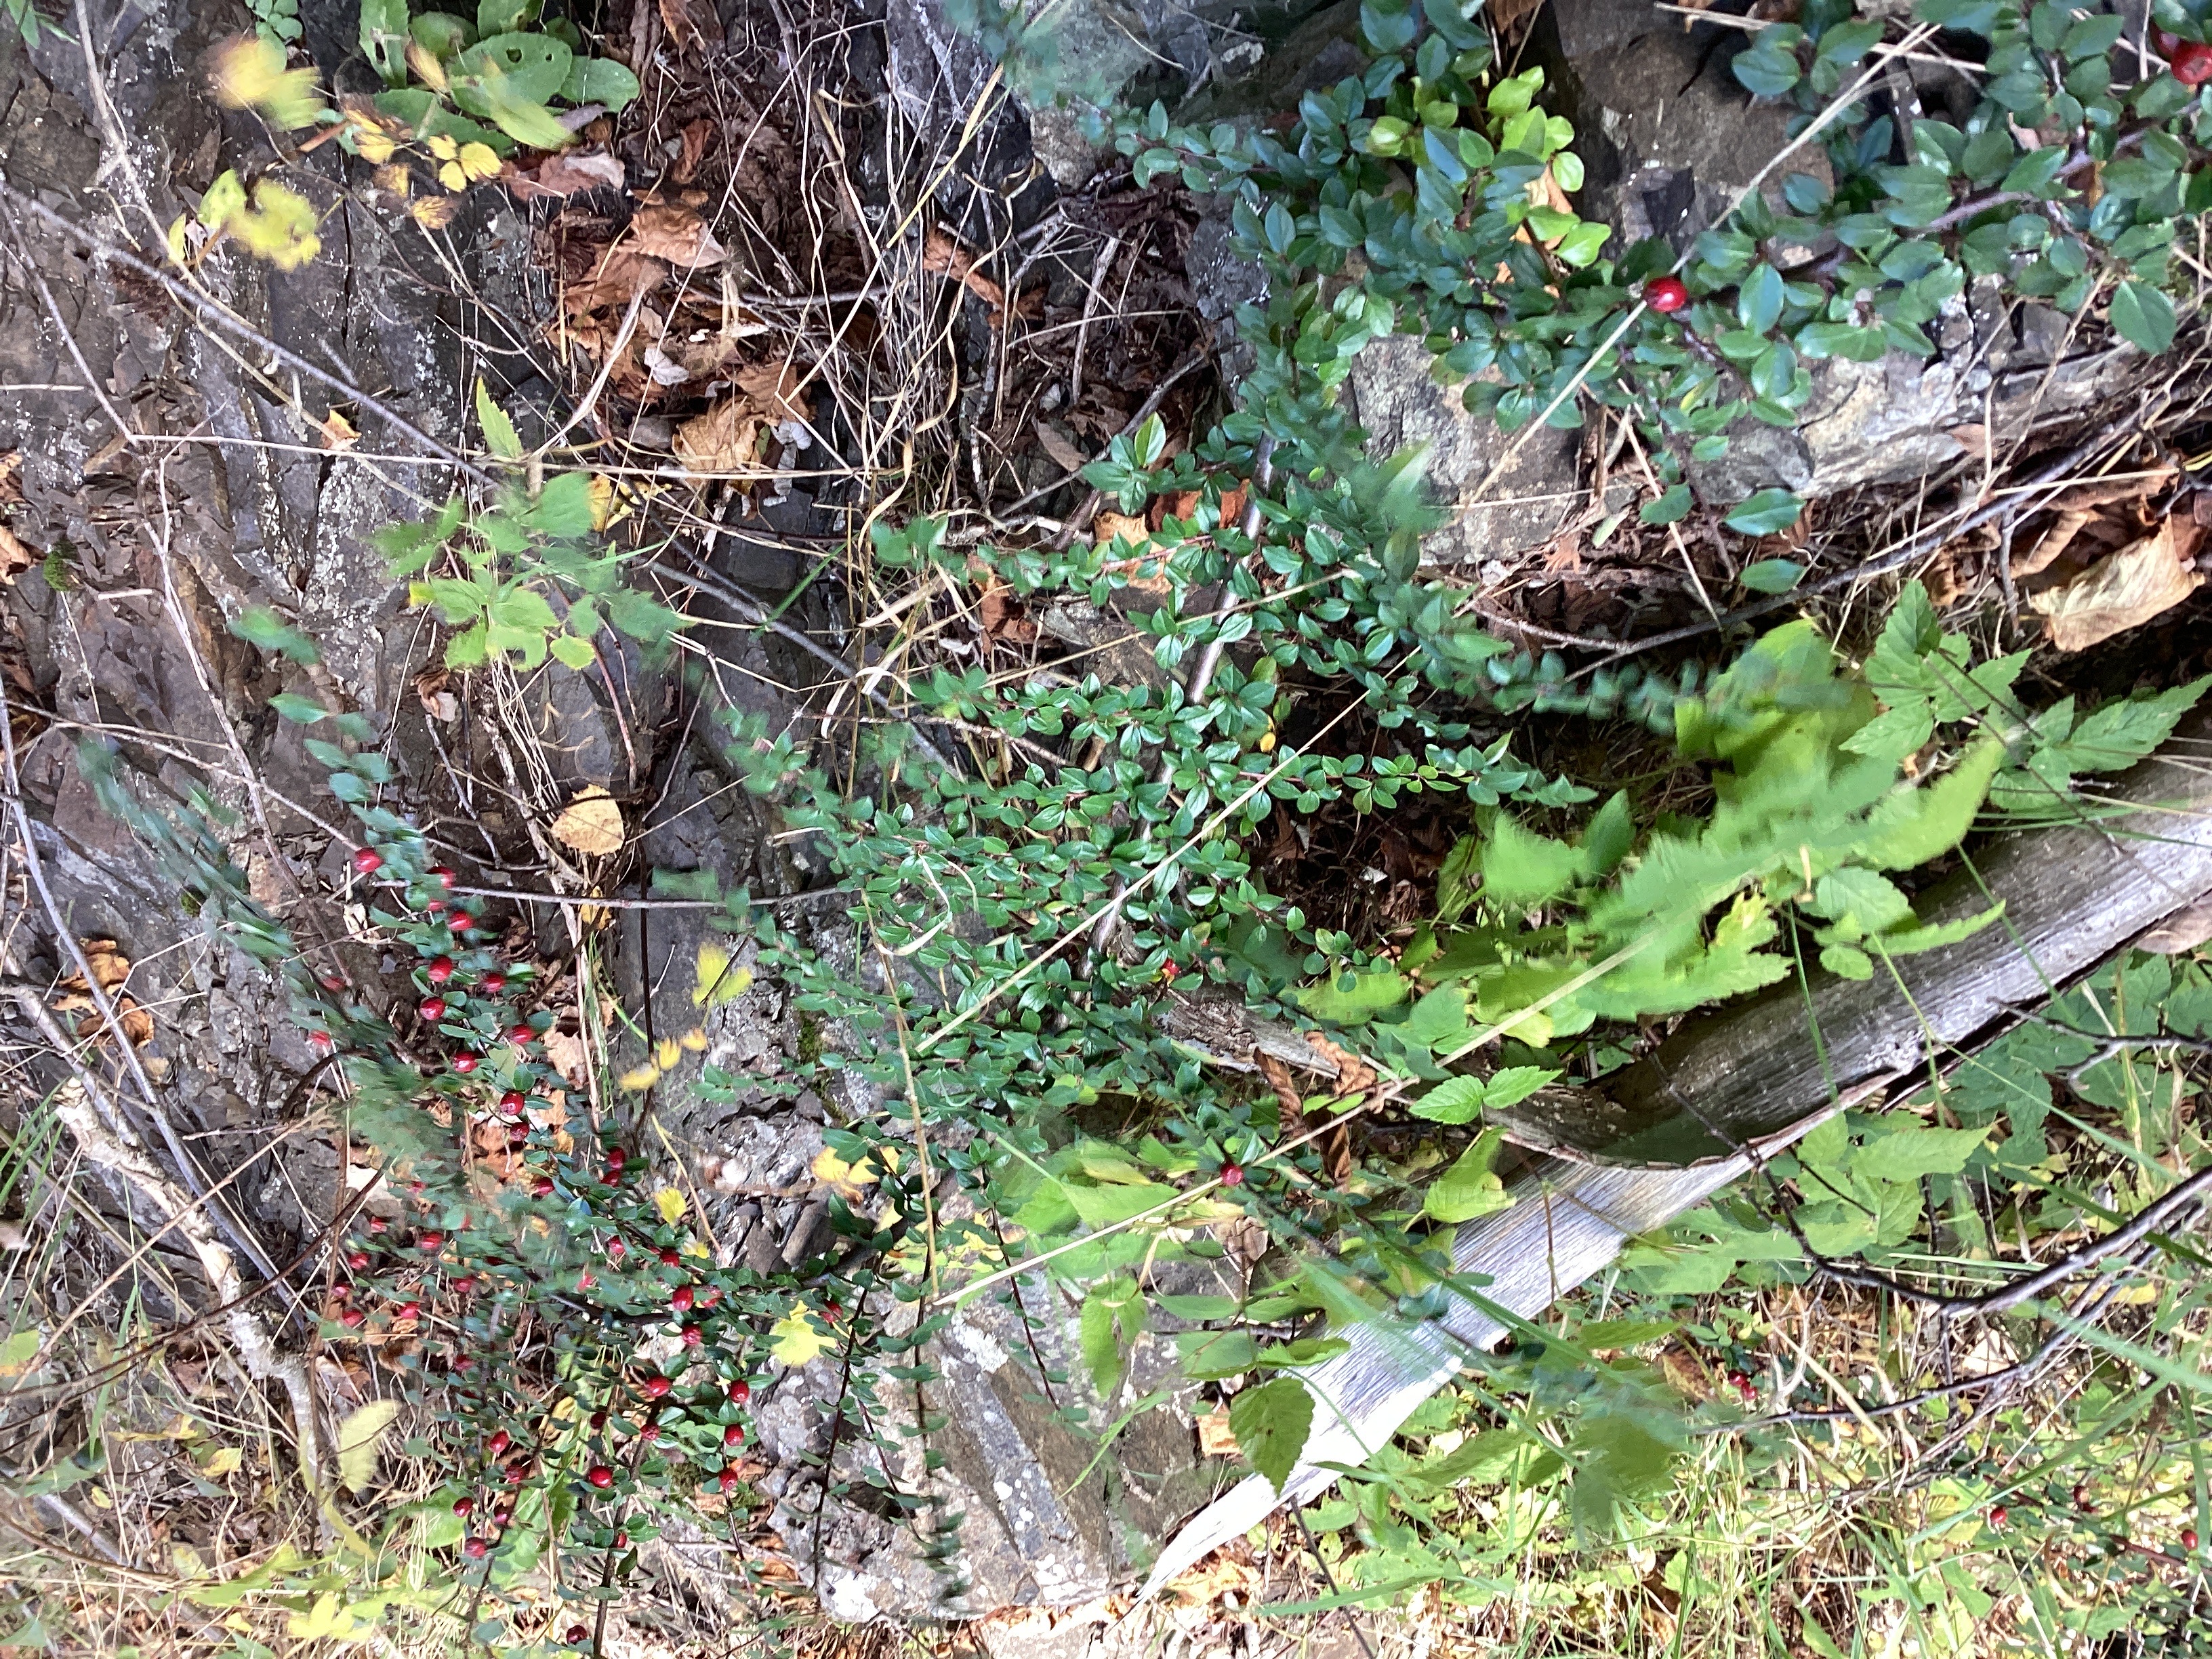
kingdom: Plantae
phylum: Tracheophyta
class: Magnoliopsida
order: Rosales
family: Rosaceae
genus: Cotoneaster
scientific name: Cotoneaster divaricatus
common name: sprikemispel
